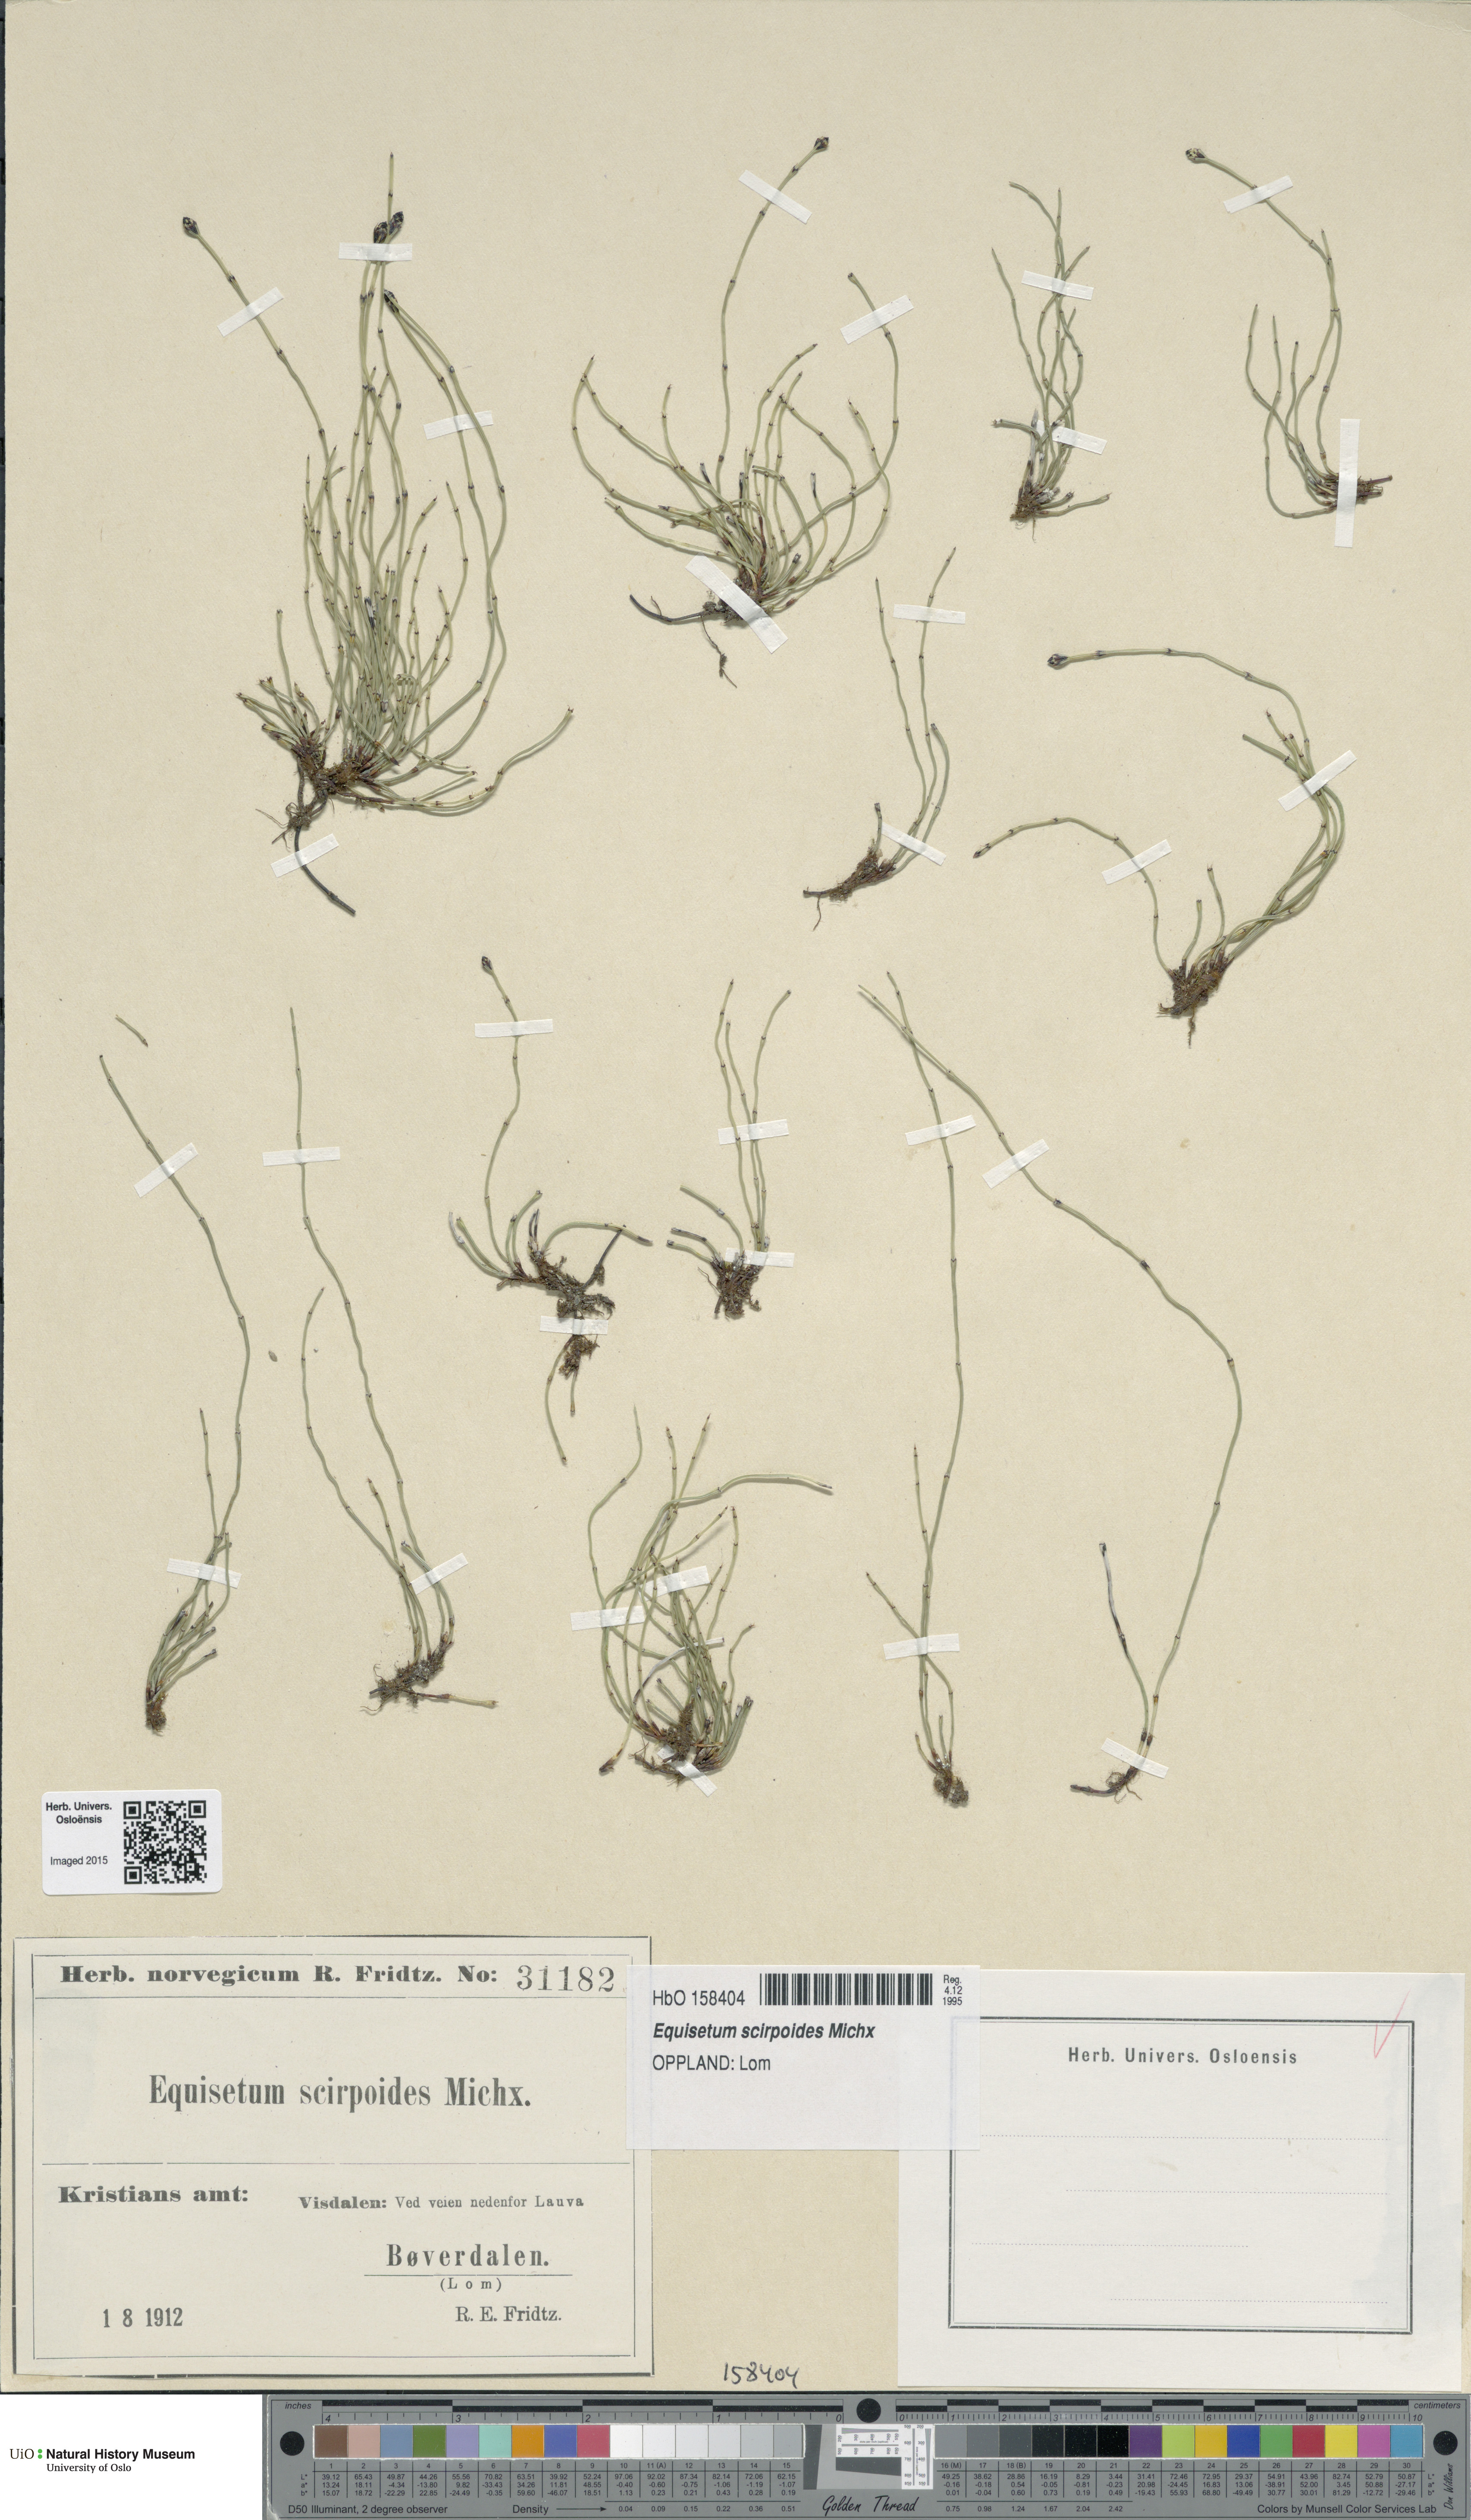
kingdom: Plantae
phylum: Tracheophyta
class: Polypodiopsida
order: Equisetales
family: Equisetaceae
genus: Equisetum
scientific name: Equisetum scirpoides
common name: Delicate horsetail
